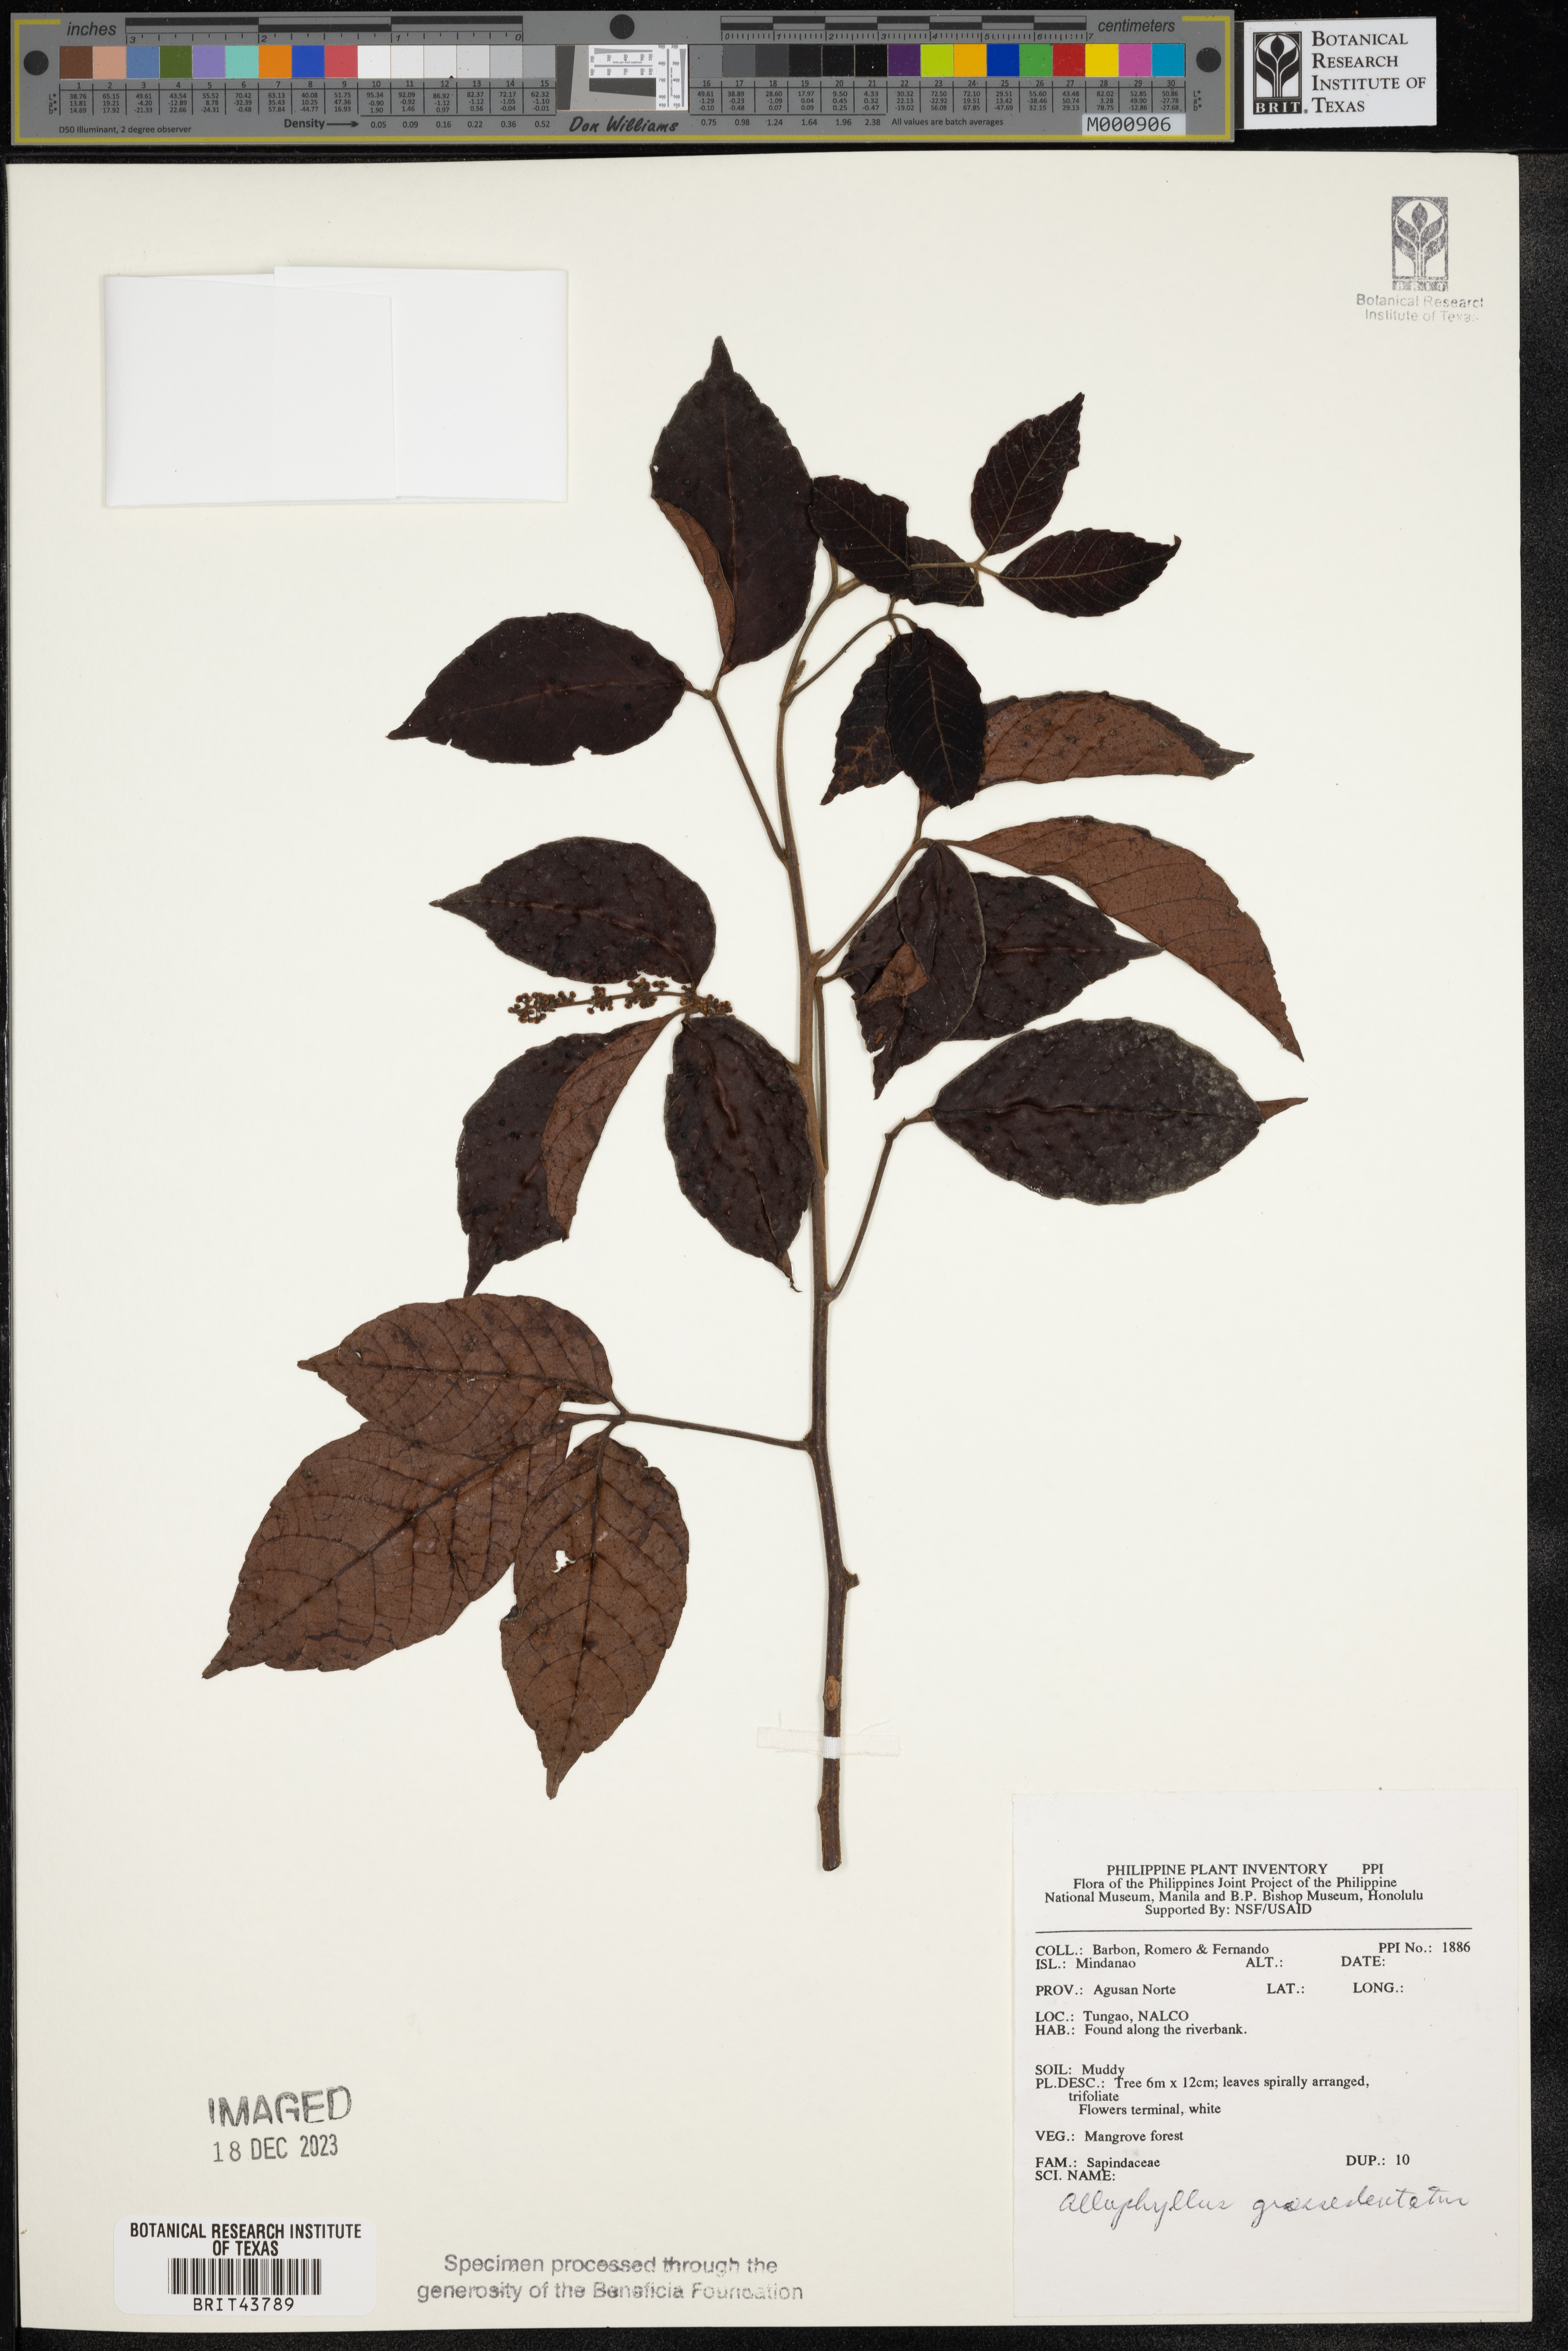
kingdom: Plantae
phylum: Tracheophyta
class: Magnoliopsida
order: Sapindales
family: Sapindaceae
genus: Allophylus
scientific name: Allophylus grossedentatus
